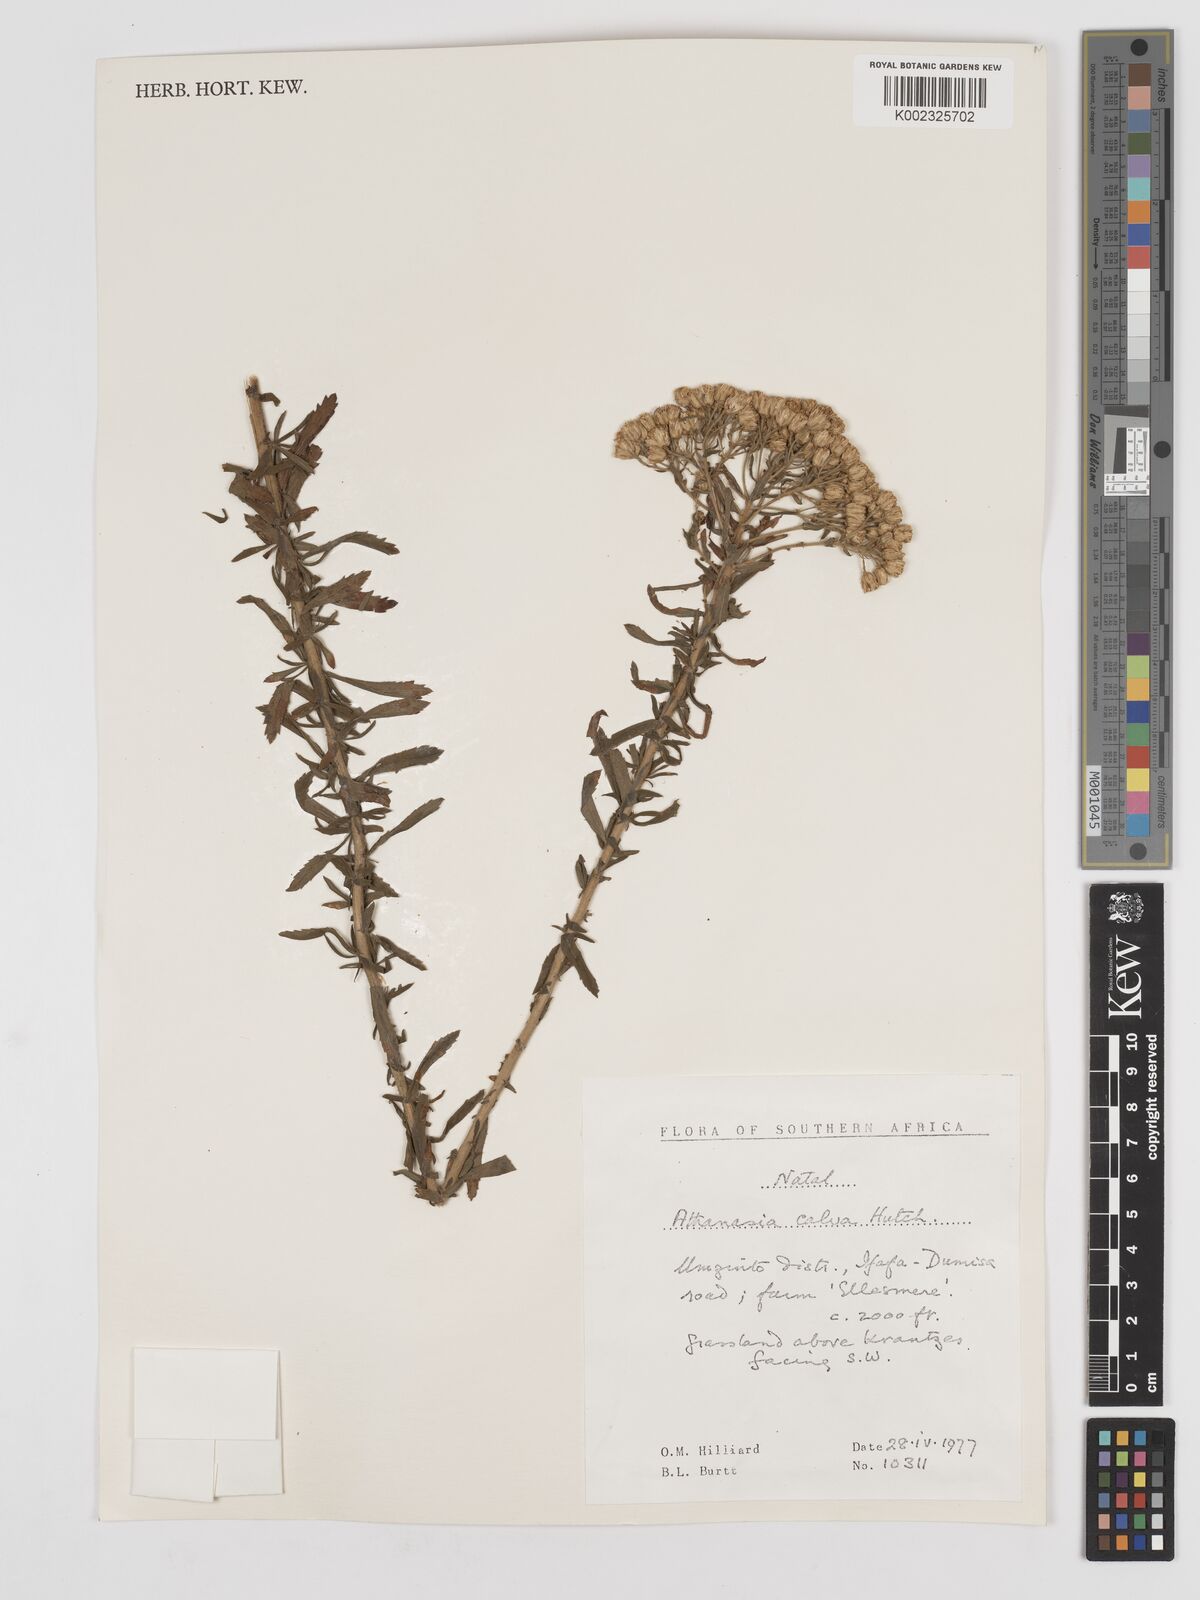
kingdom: Plantae
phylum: Tracheophyta
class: Magnoliopsida
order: Asterales
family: Asteraceae
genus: Inulanthera
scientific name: Inulanthera dregeana
